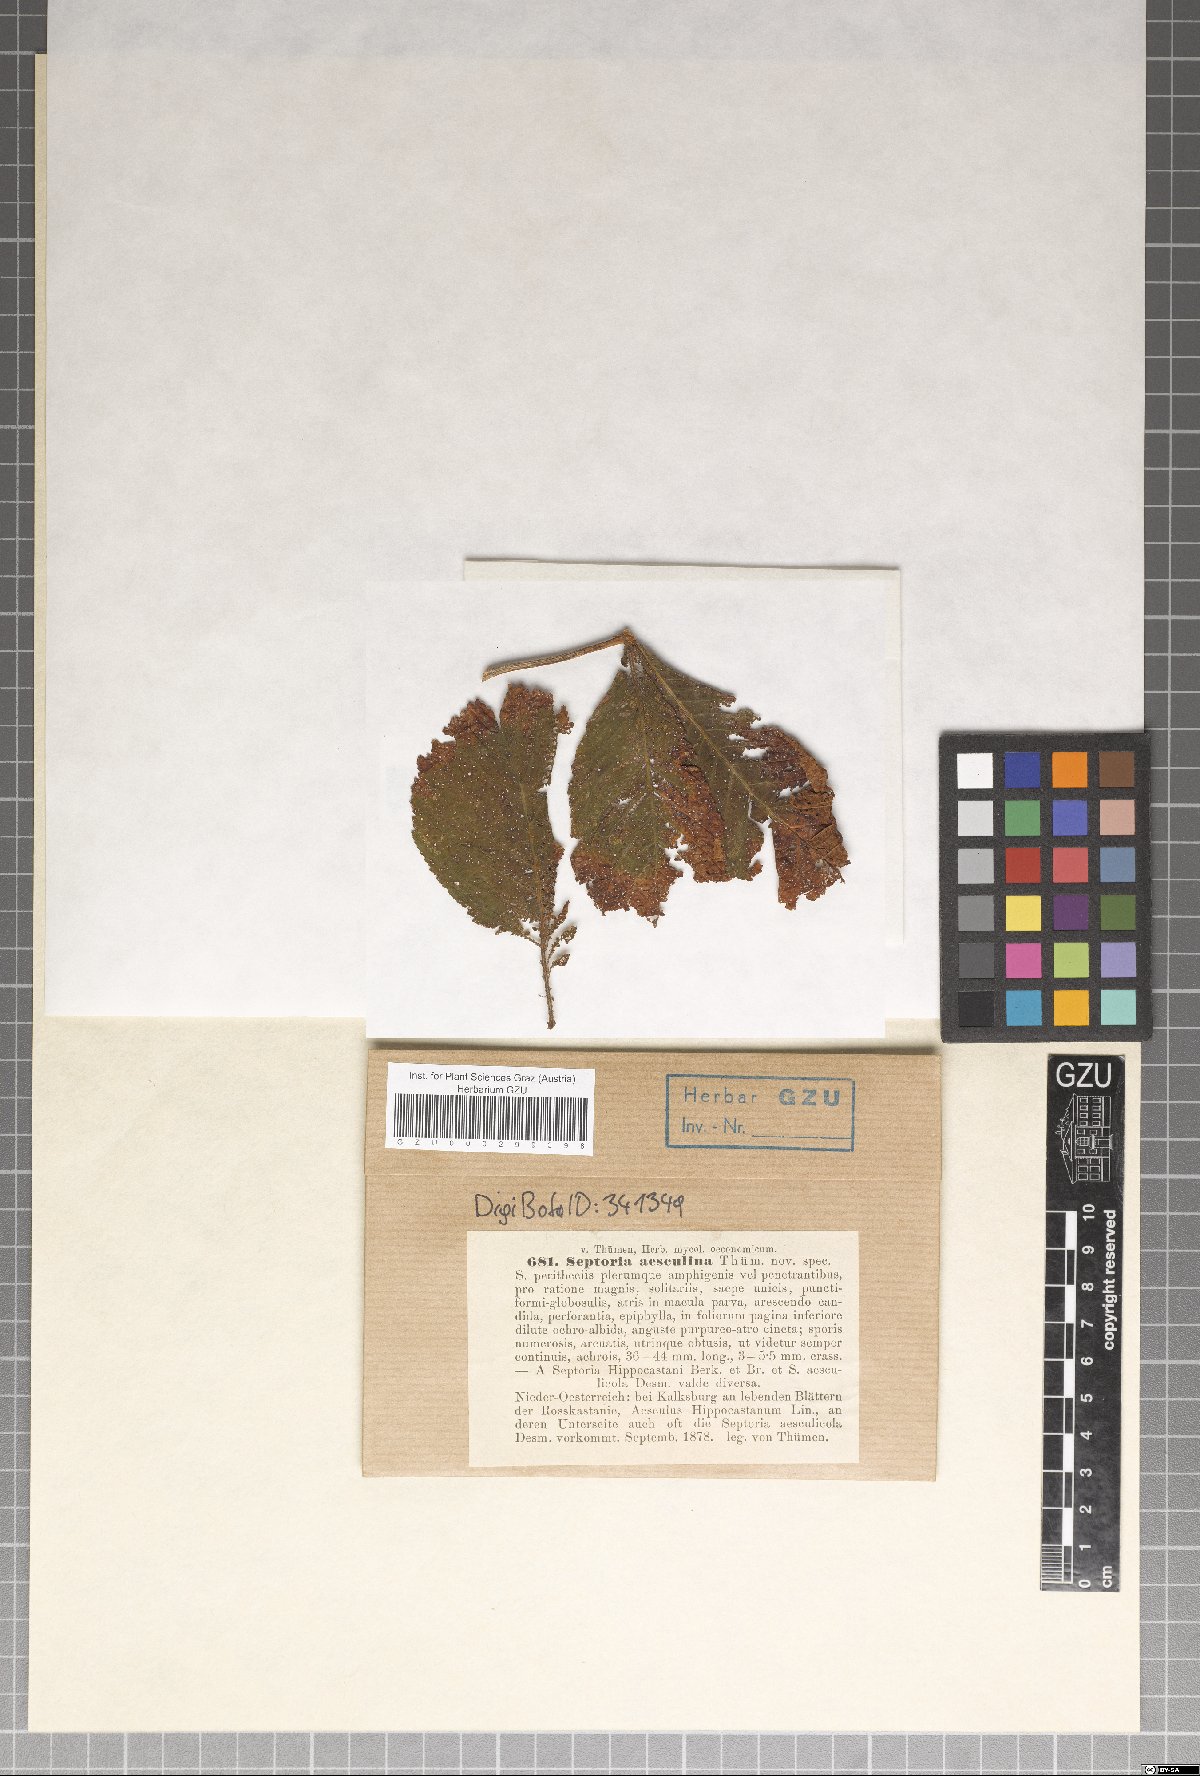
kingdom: Fungi
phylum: Ascomycota
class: Dothideomycetes
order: Mycosphaerellales
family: Mycosphaerellaceae
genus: Septoria
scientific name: Septoria aesculi
